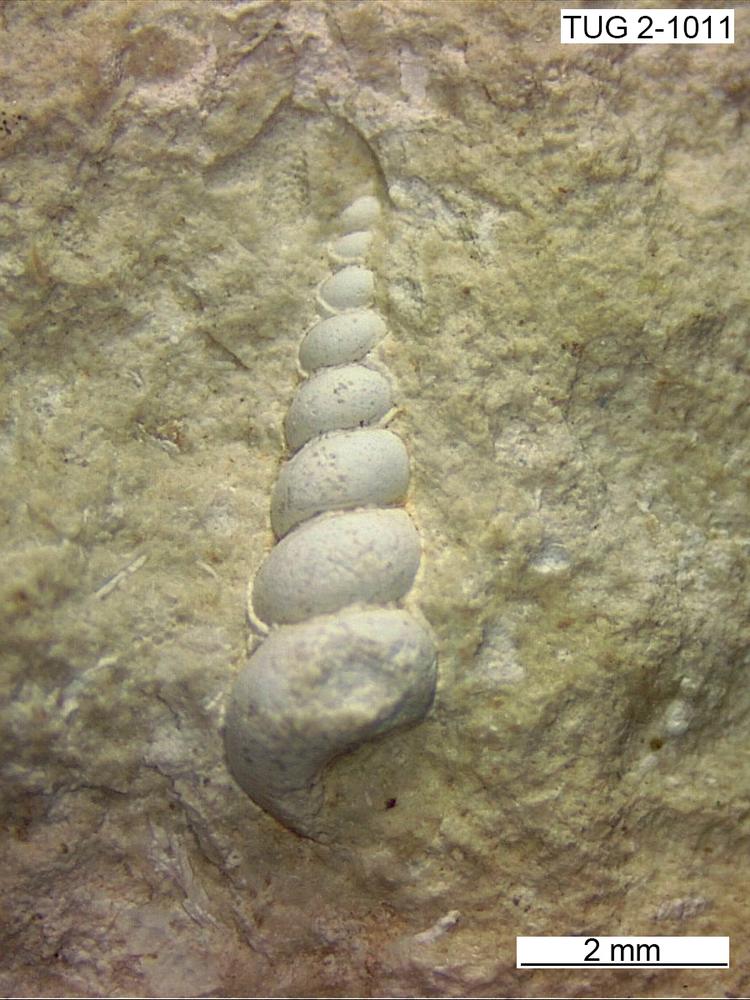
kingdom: Animalia
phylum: Mollusca
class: Gastropoda
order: Pleurotomariida
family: Murchisoniidae
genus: Hormotoma
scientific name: Hormotoma
